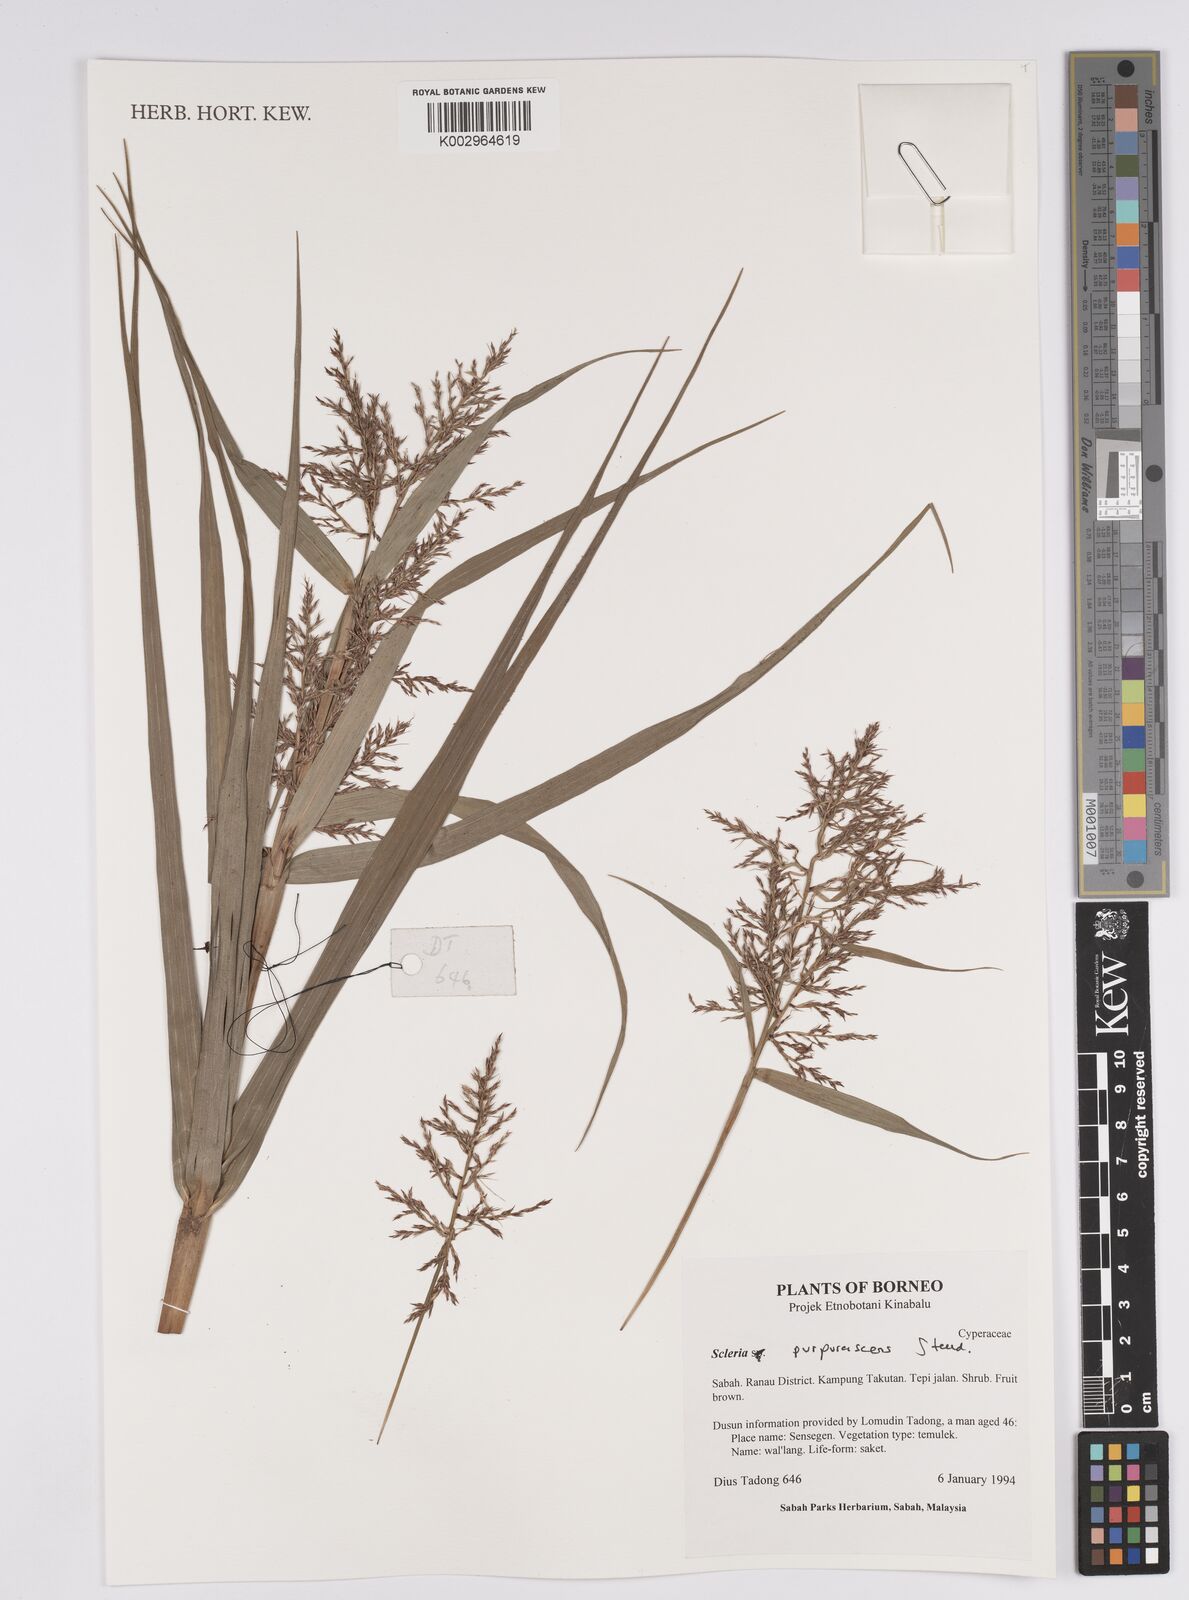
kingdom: Plantae
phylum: Tracheophyta
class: Liliopsida
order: Poales
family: Cyperaceae
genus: Scleria
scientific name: Scleria purpurascens
